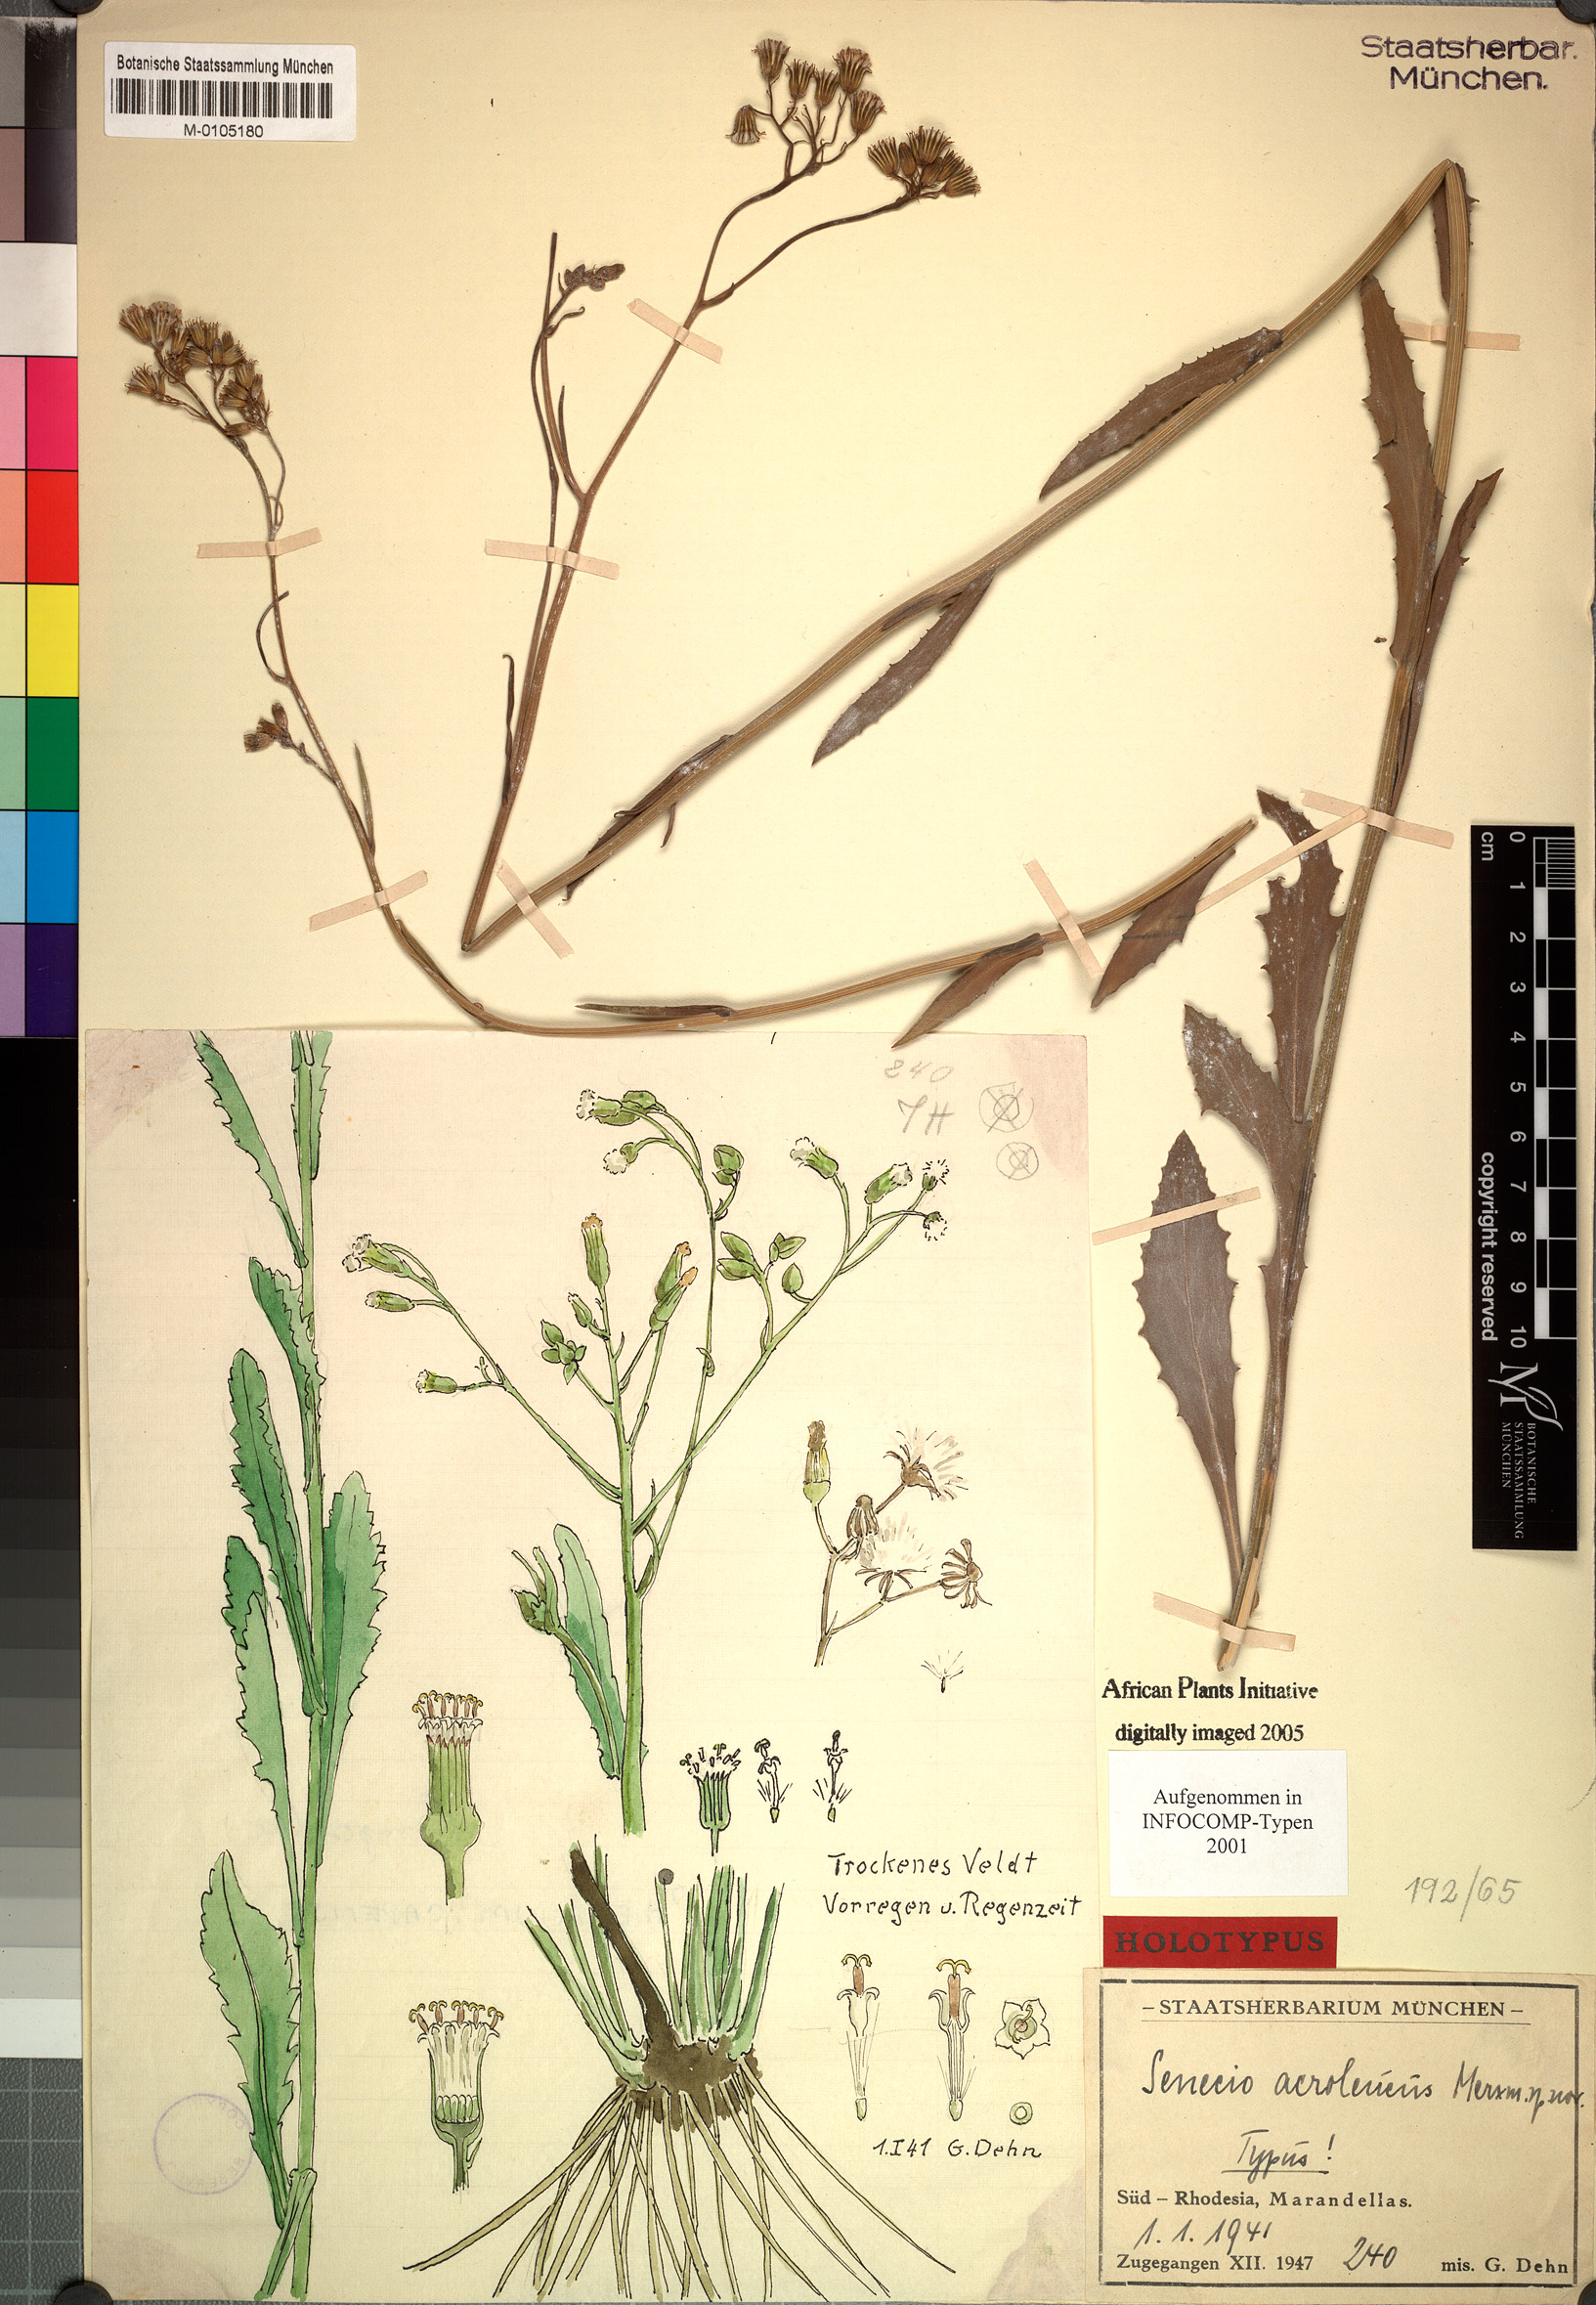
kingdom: Plantae
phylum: Tracheophyta
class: Magnoliopsida
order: Asterales
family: Asteraceae
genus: Senecio
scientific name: Senecio hochstetteri
